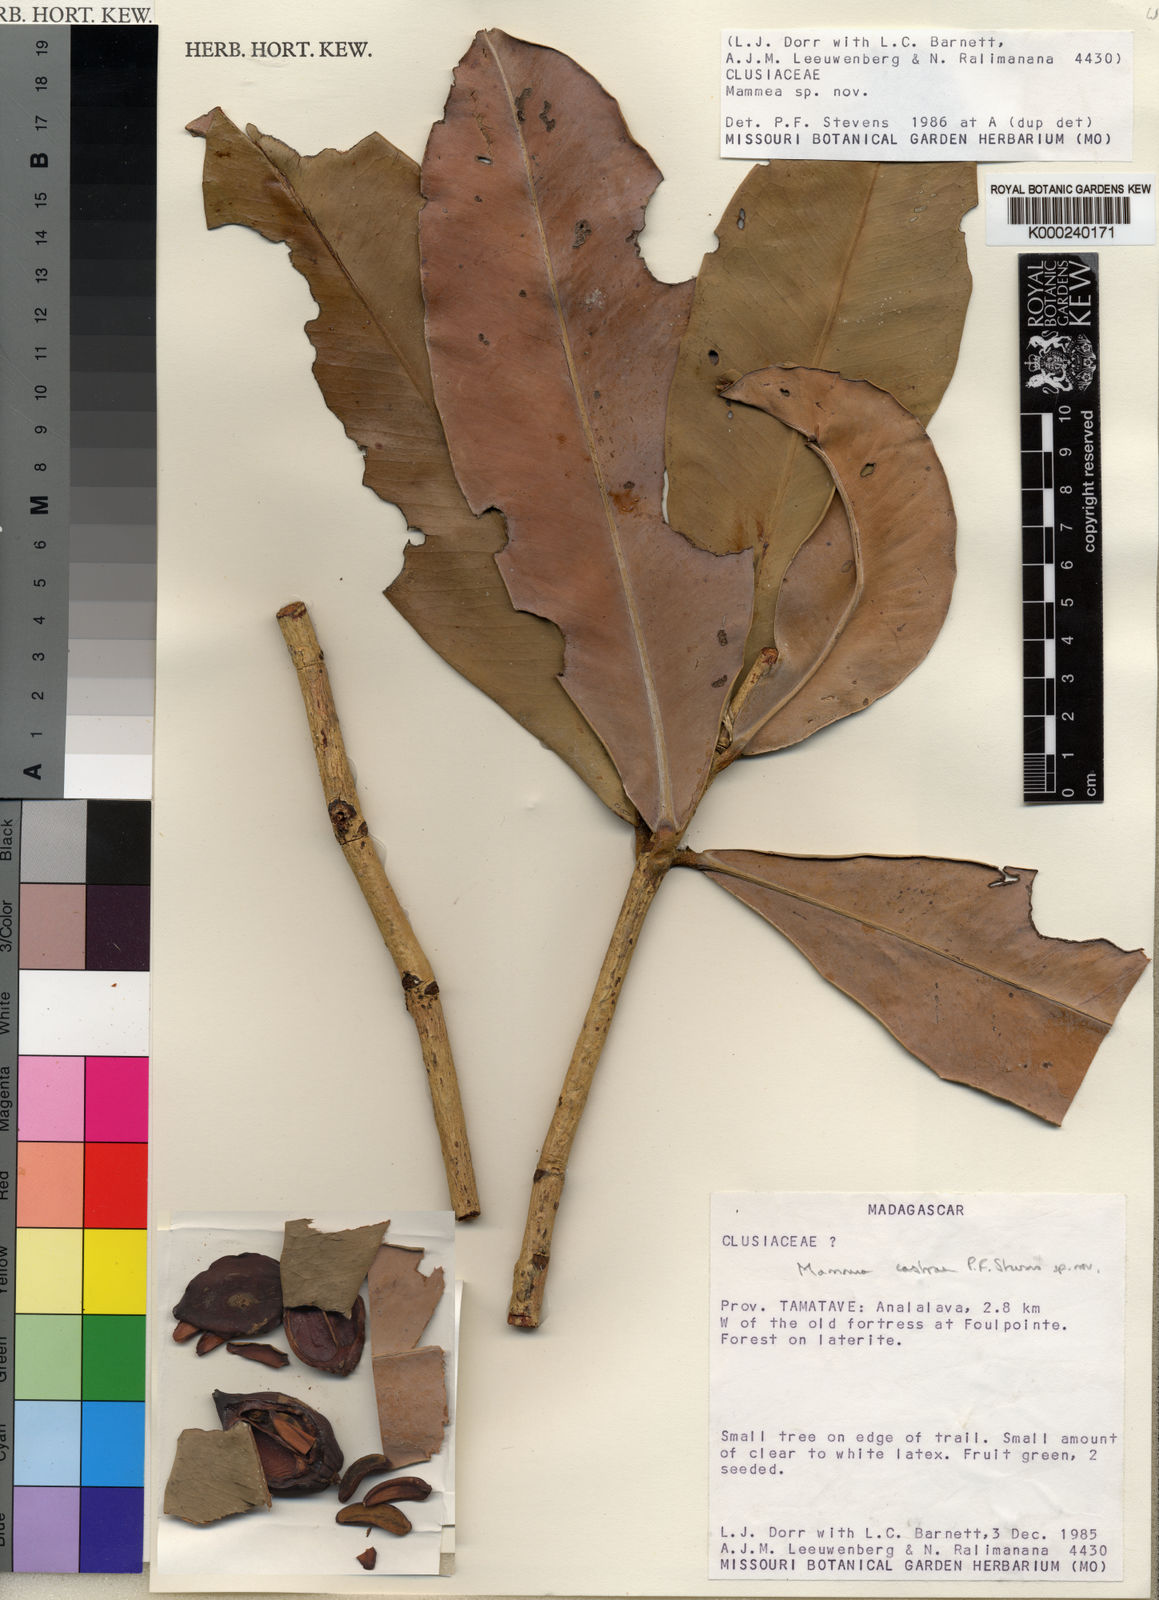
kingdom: Plantae
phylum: Tracheophyta
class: Magnoliopsida
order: Malpighiales
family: Calophyllaceae
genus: Mammea
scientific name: Mammea
